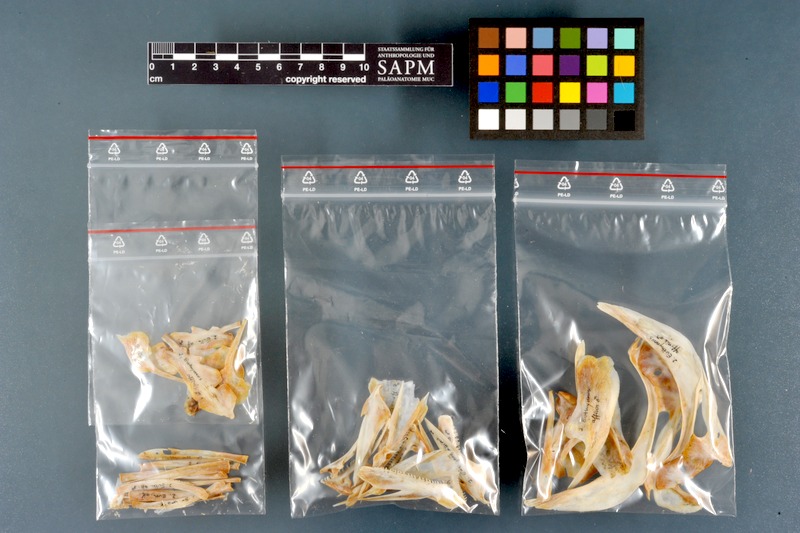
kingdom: Animalia
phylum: Chordata
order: Perciformes
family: Scombridae
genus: Euthynnus
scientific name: Euthynnus affinis
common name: Mackerel tuna
